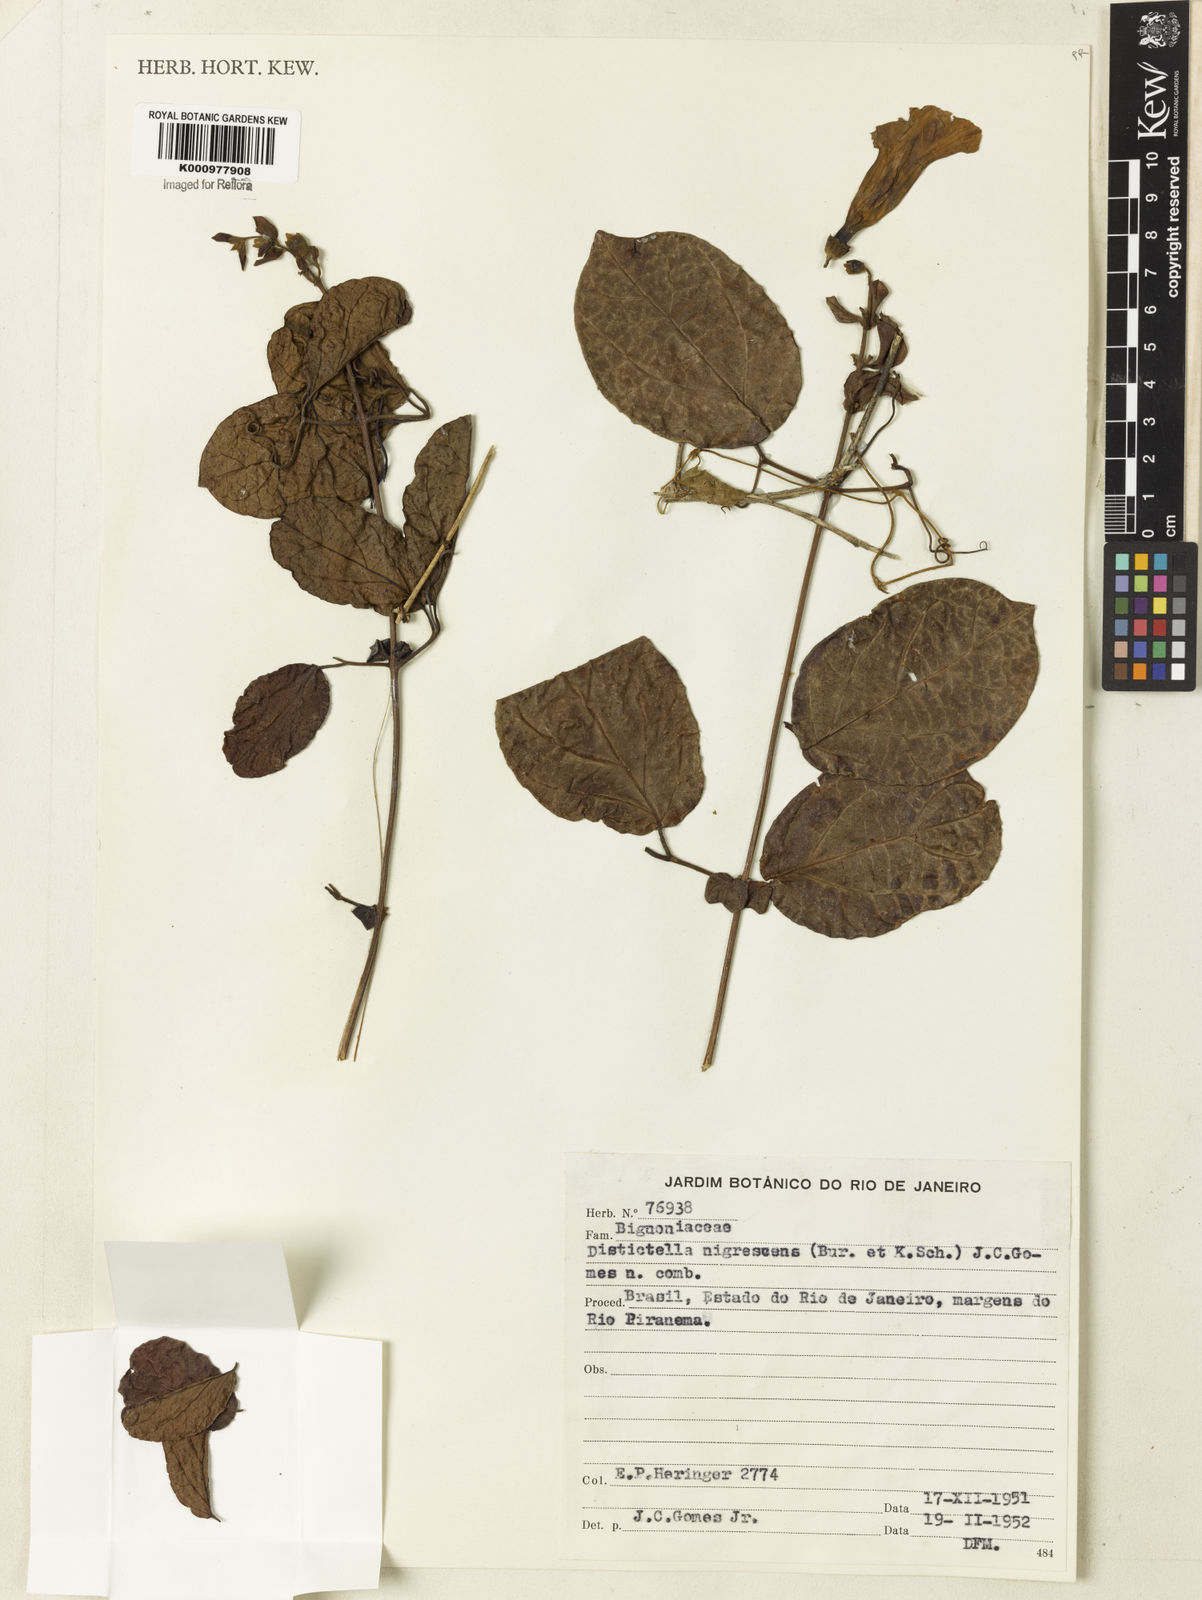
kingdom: Plantae
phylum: Tracheophyta
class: Magnoliopsida
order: Lamiales
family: Bignoniaceae
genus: Amphilophium
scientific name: Amphilophium frutescens
